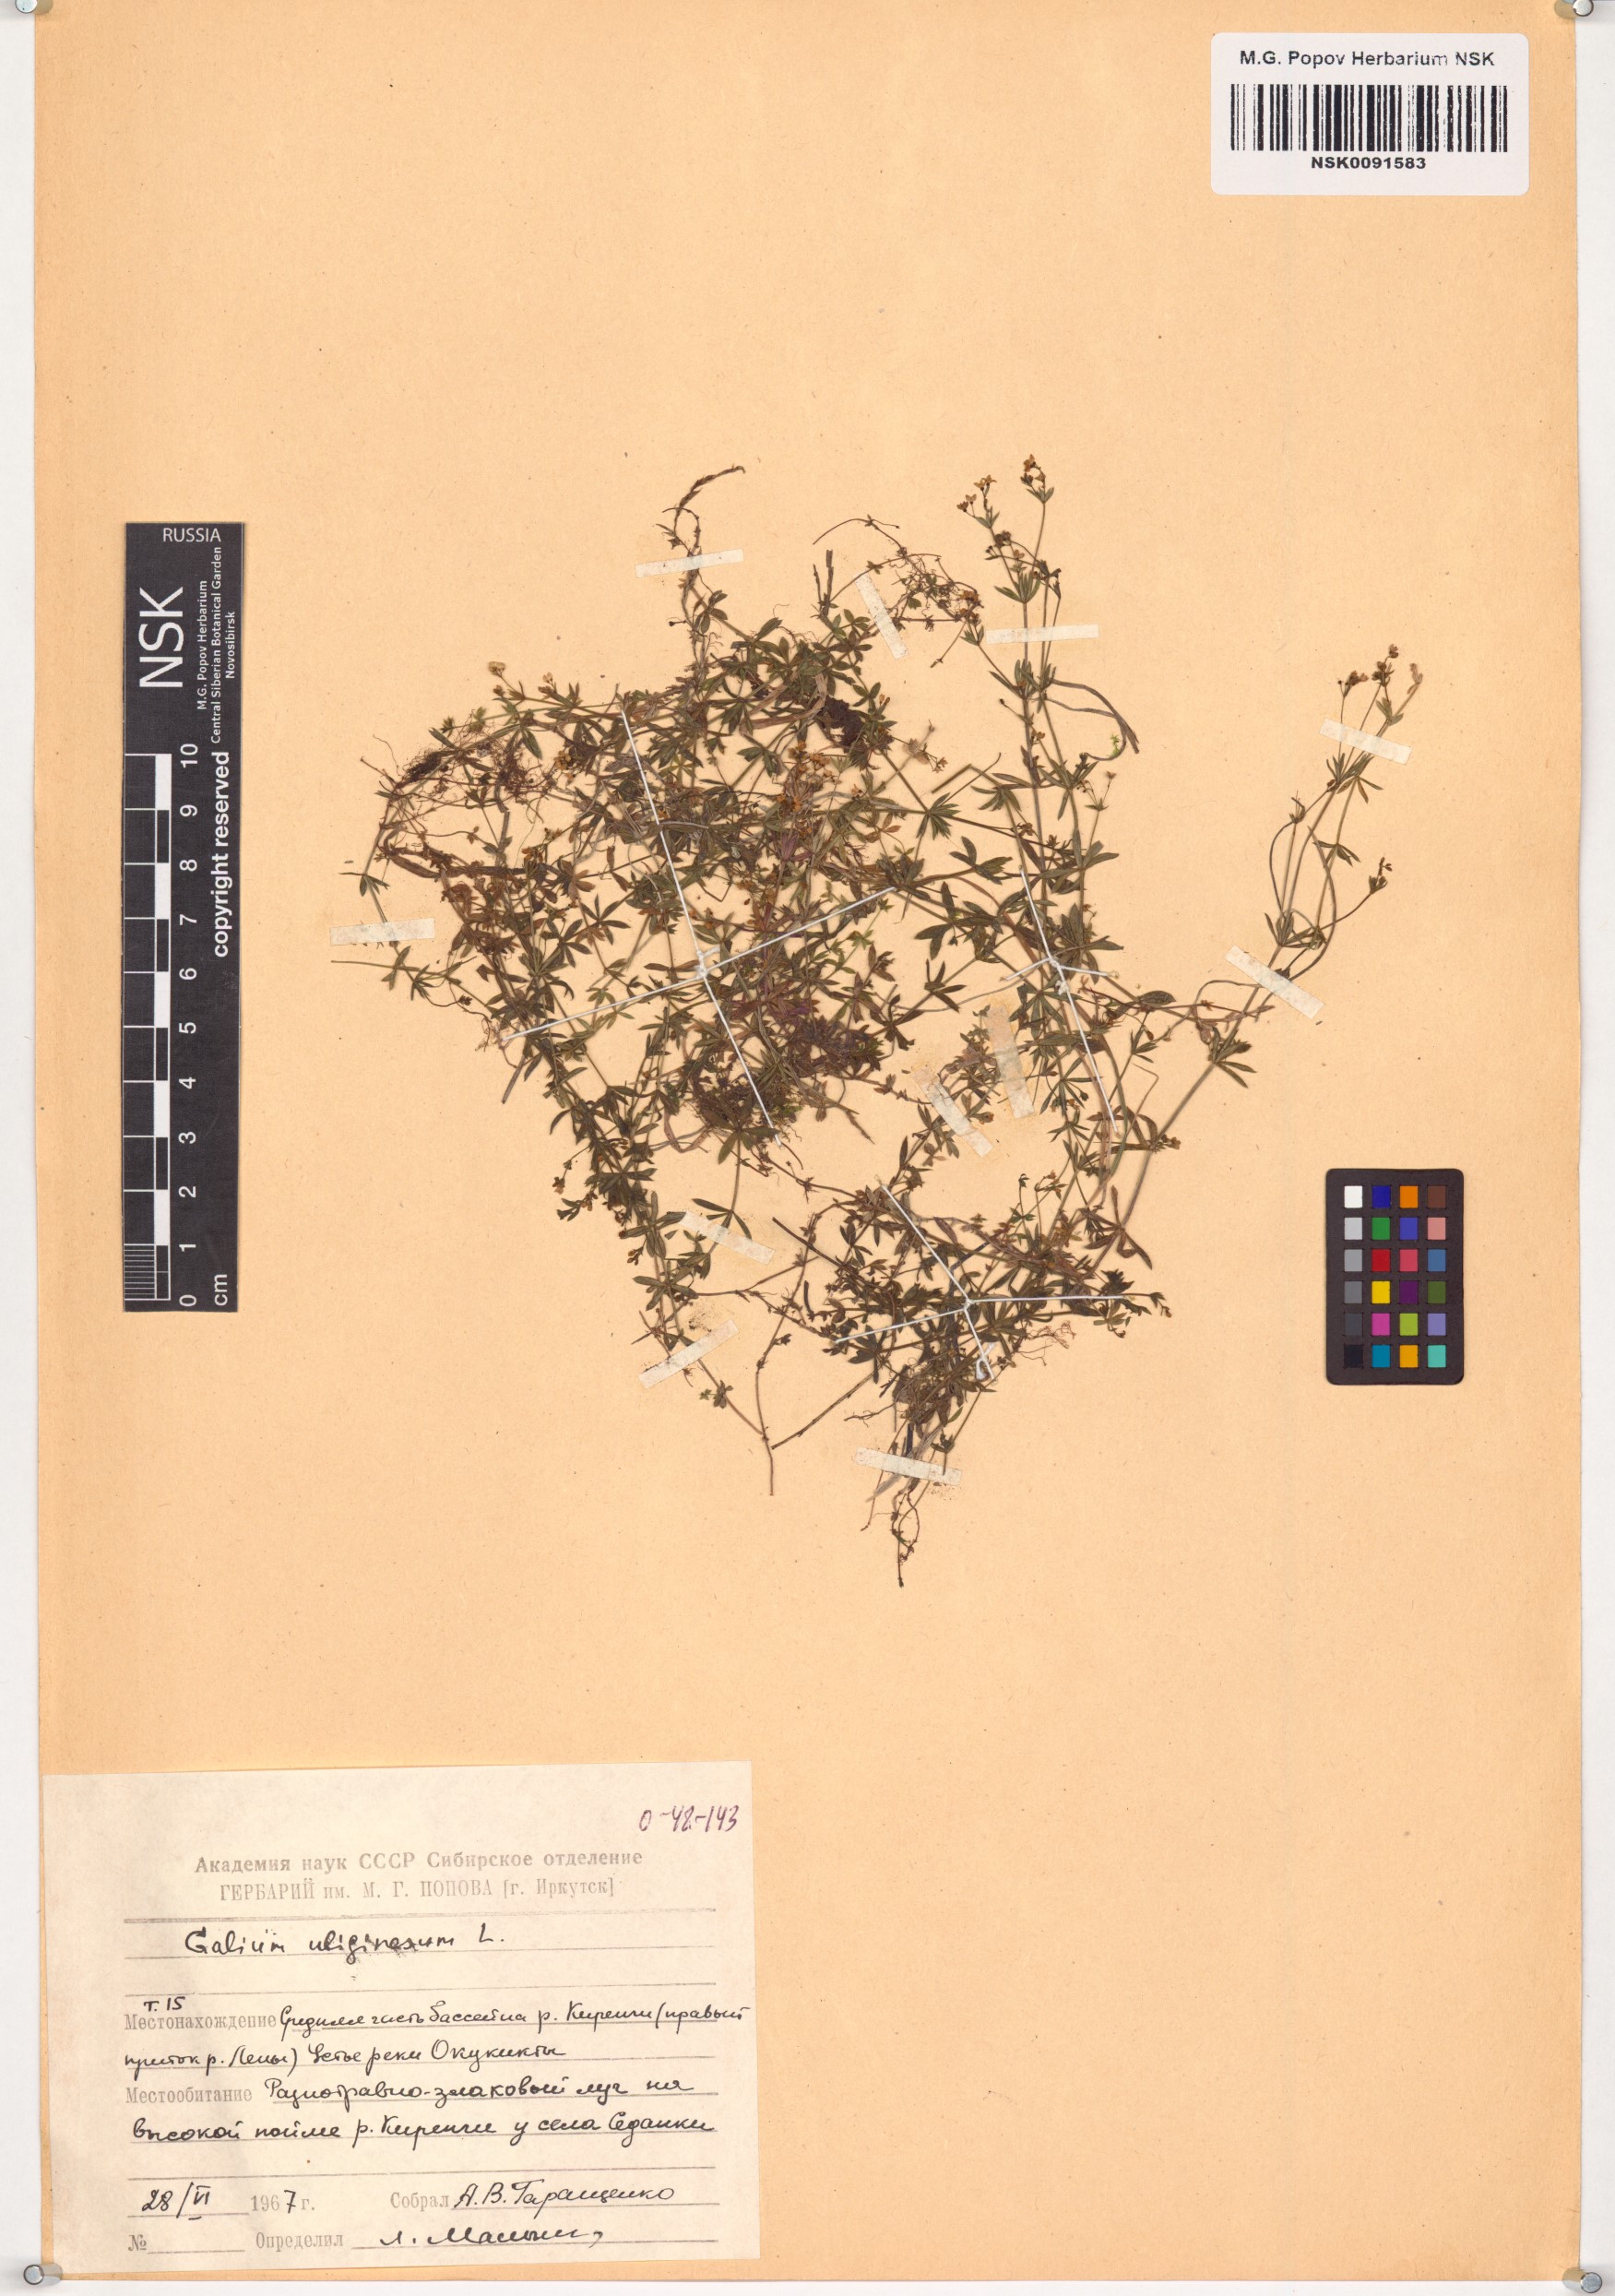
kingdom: Plantae
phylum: Tracheophyta
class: Magnoliopsida
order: Gentianales
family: Rubiaceae
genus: Galium
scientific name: Galium uliginosum
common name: Fen bedstraw
